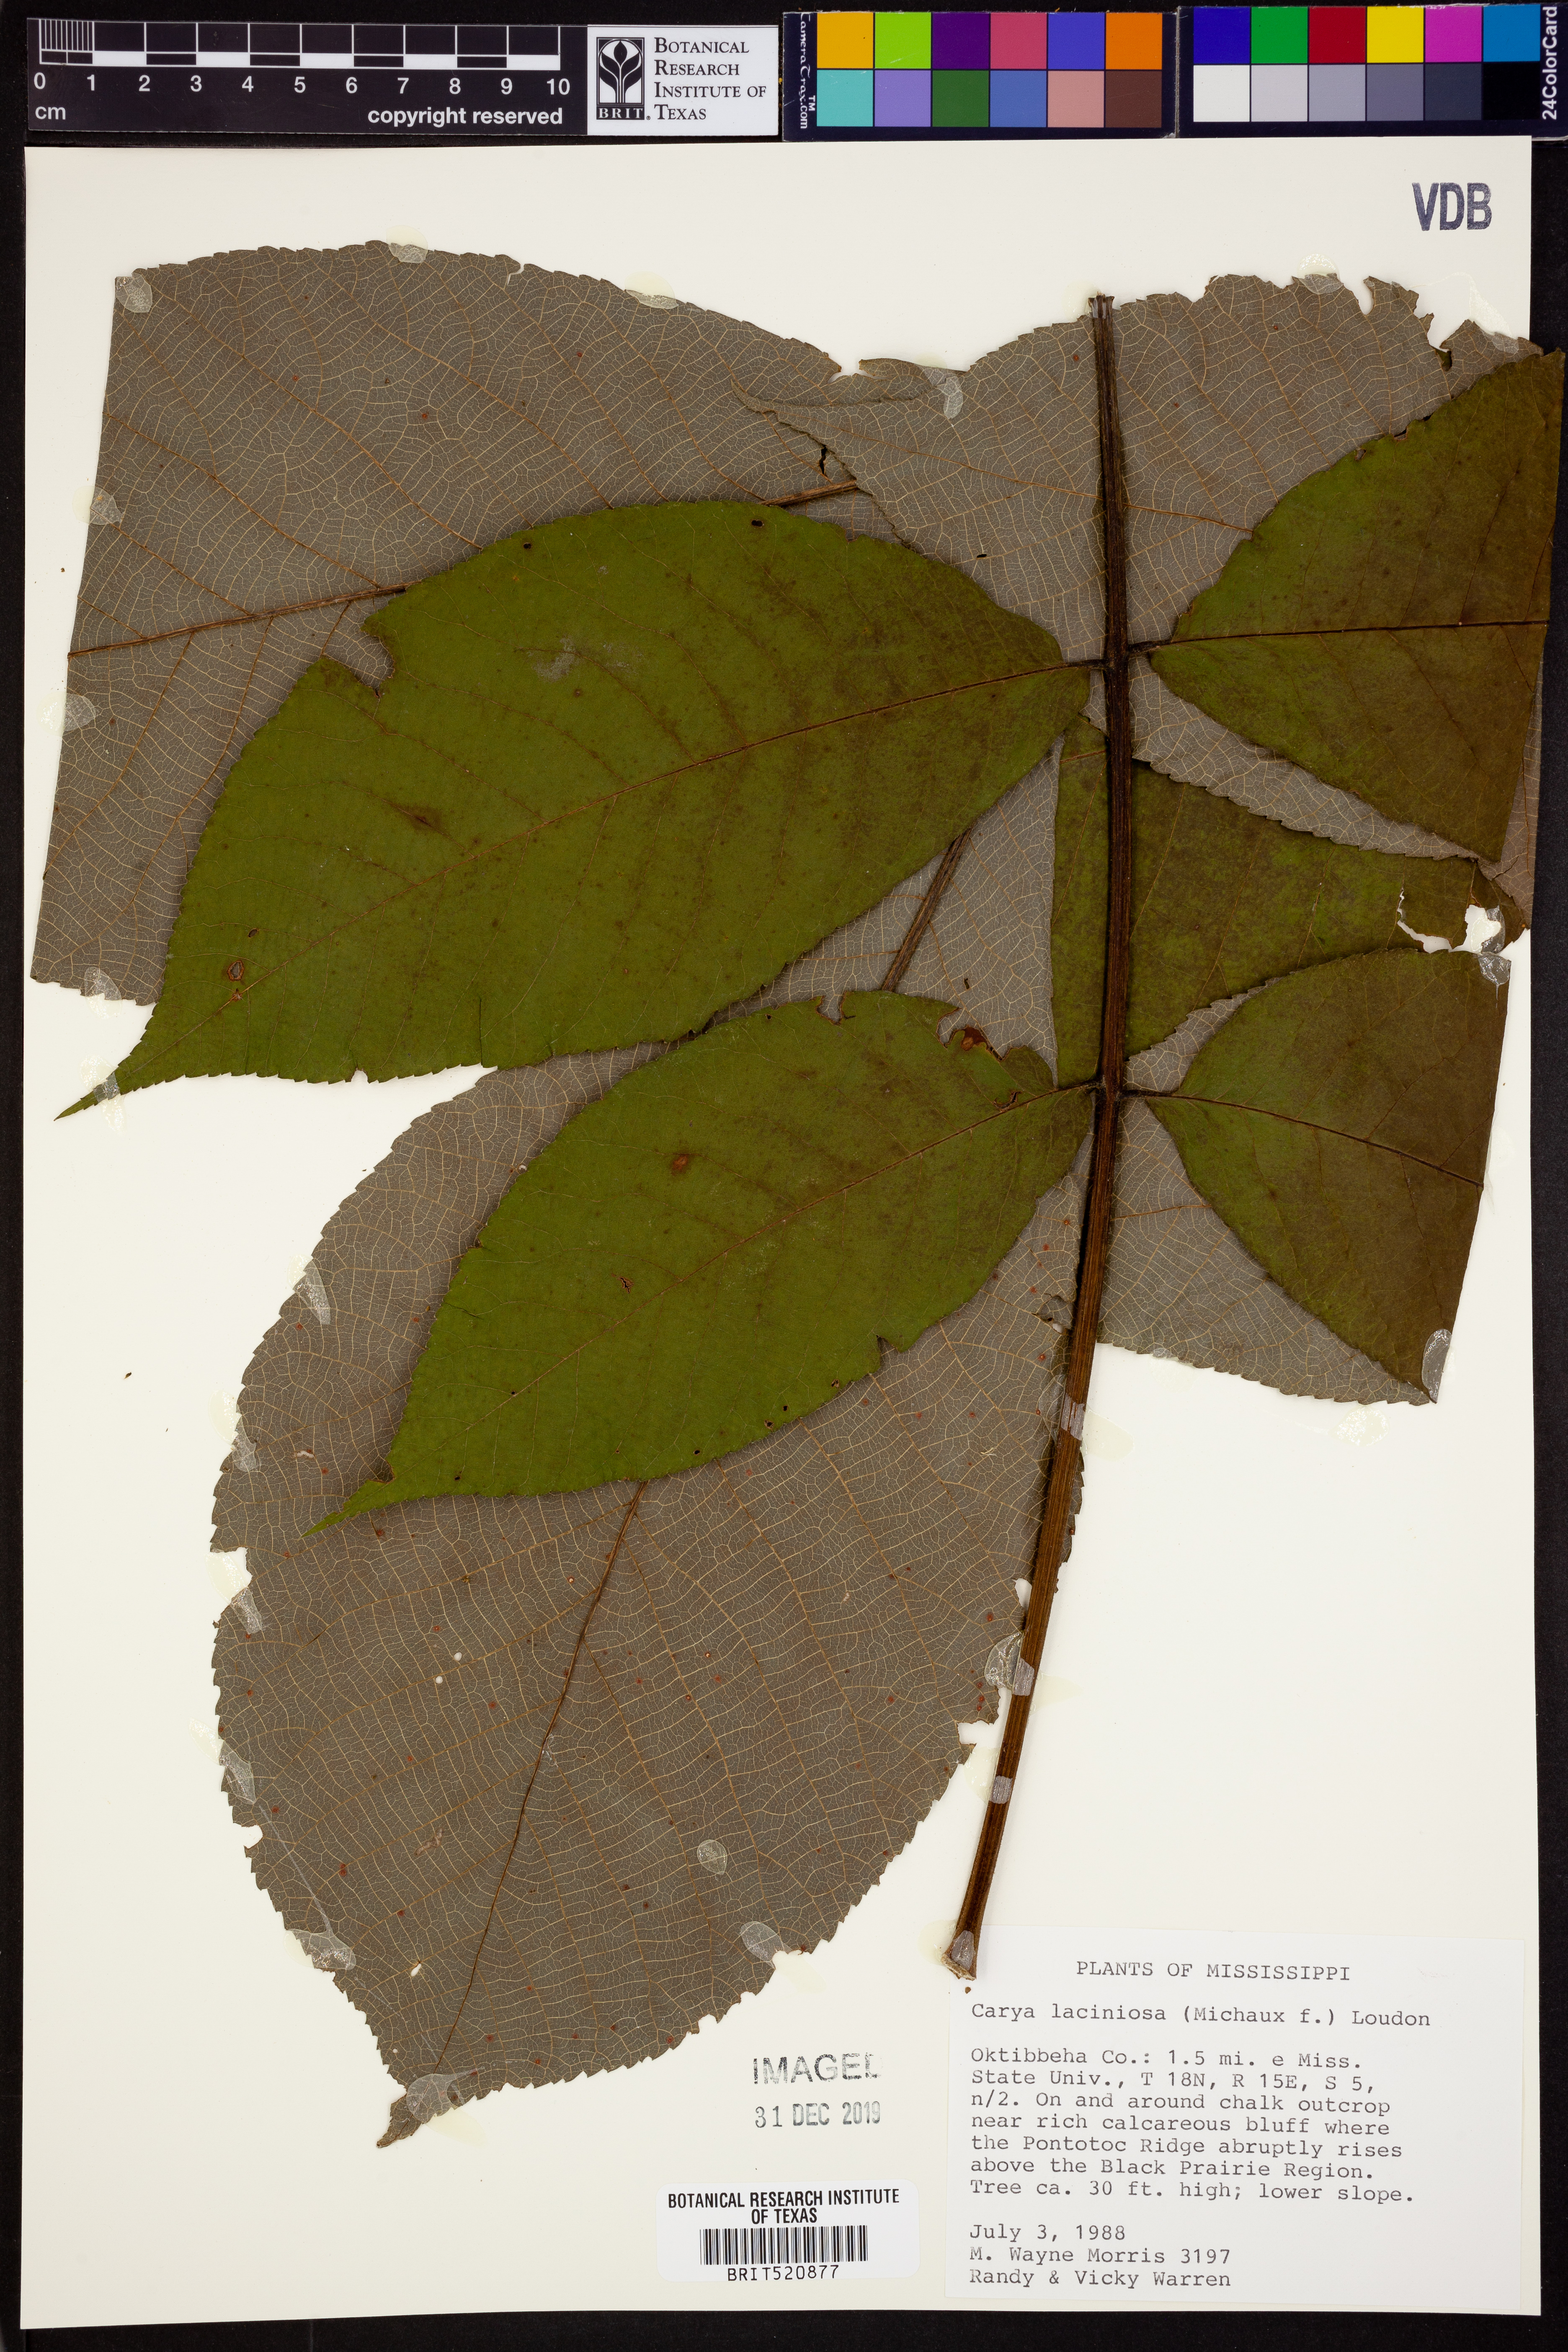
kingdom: Plantae
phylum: Tracheophyta
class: Magnoliopsida
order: Fagales
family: Juglandaceae
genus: Carya
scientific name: Carya laciniosa
